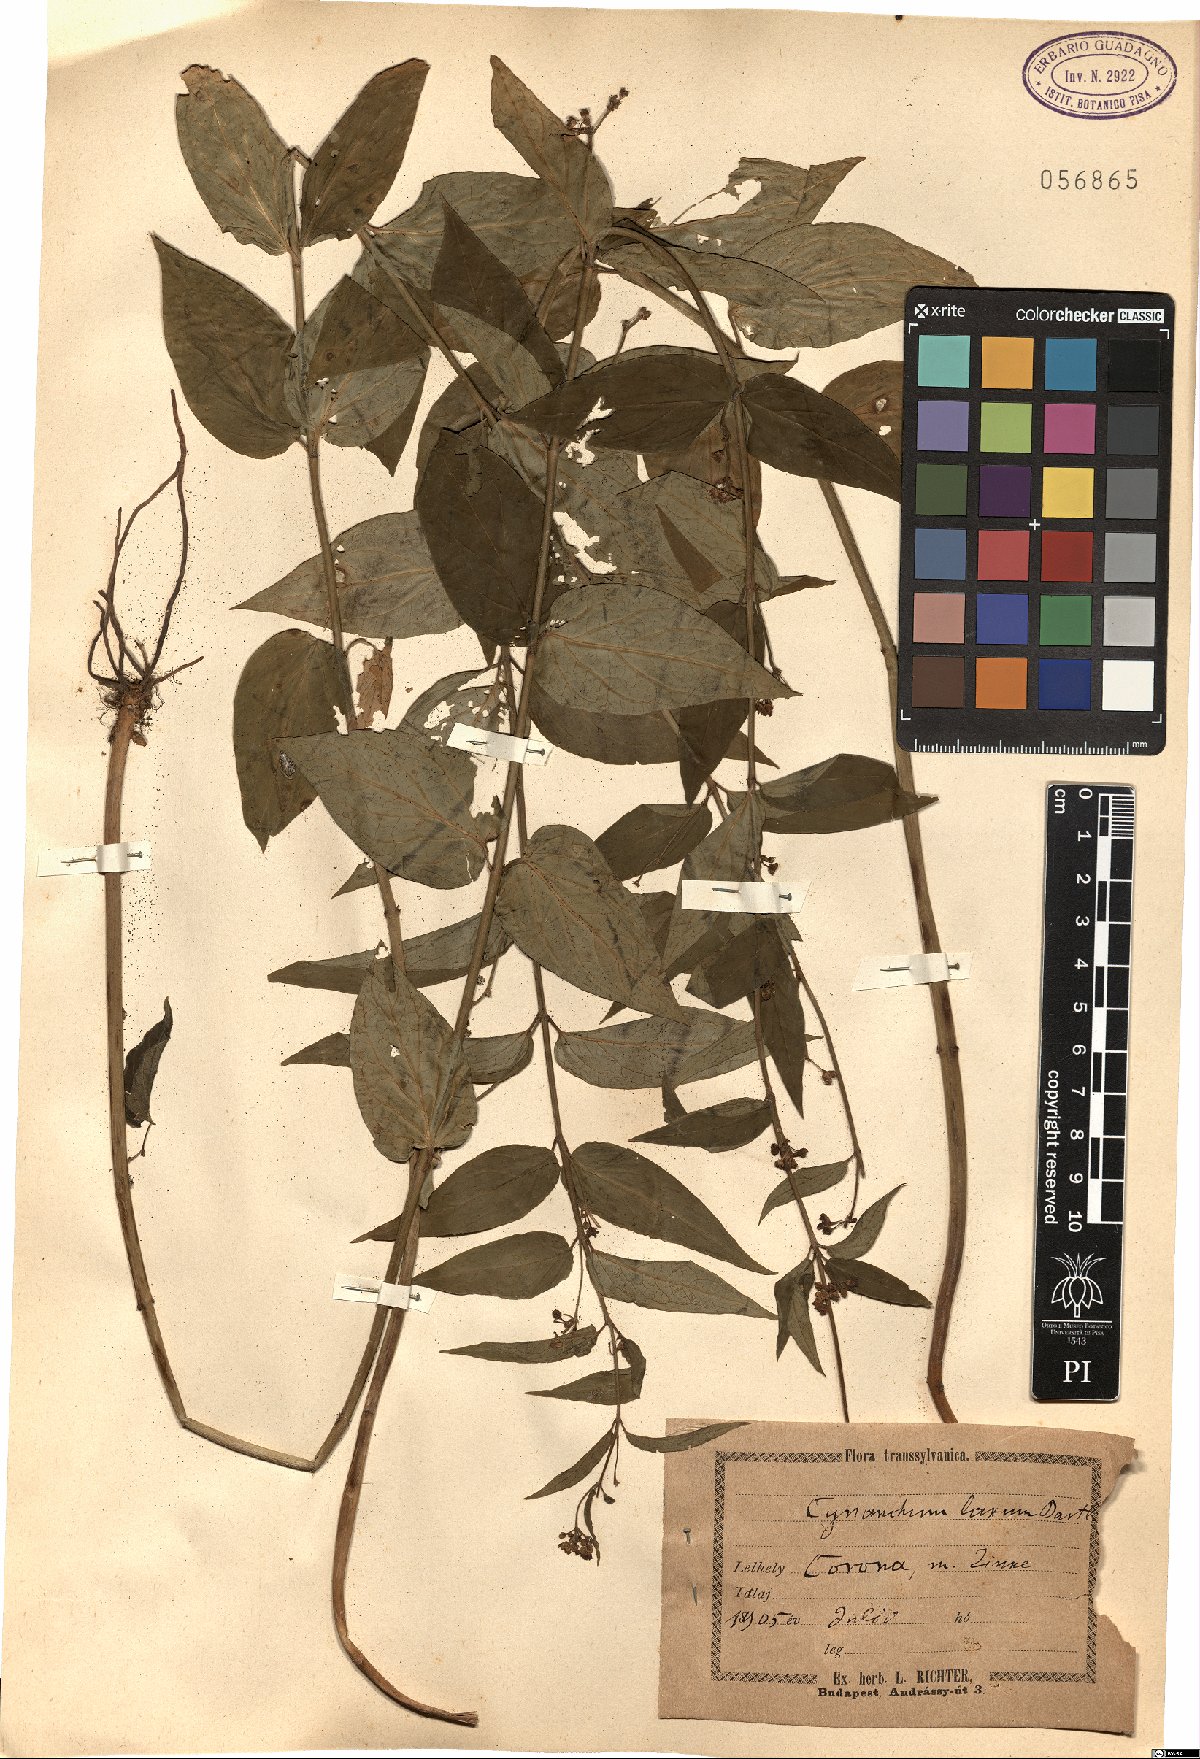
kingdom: Plantae
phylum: Tracheophyta
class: Magnoliopsida
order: Gentianales
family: Apocynaceae
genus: Vincetoxicum
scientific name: Vincetoxicum hirundinaria
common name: White swallowwort
